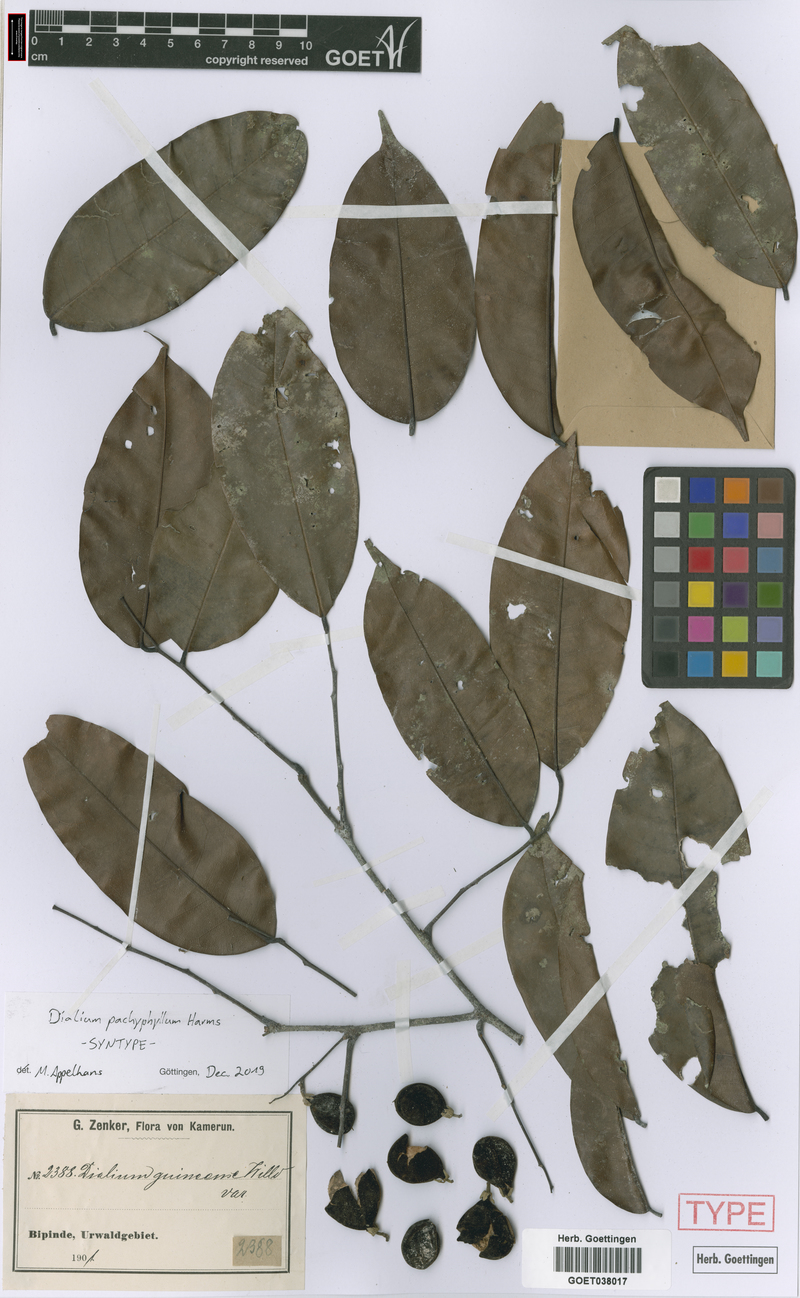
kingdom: Plantae
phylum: Tracheophyta
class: Magnoliopsida
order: Fabales
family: Fabaceae
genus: Dialium
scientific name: Dialium pachyphyllum
